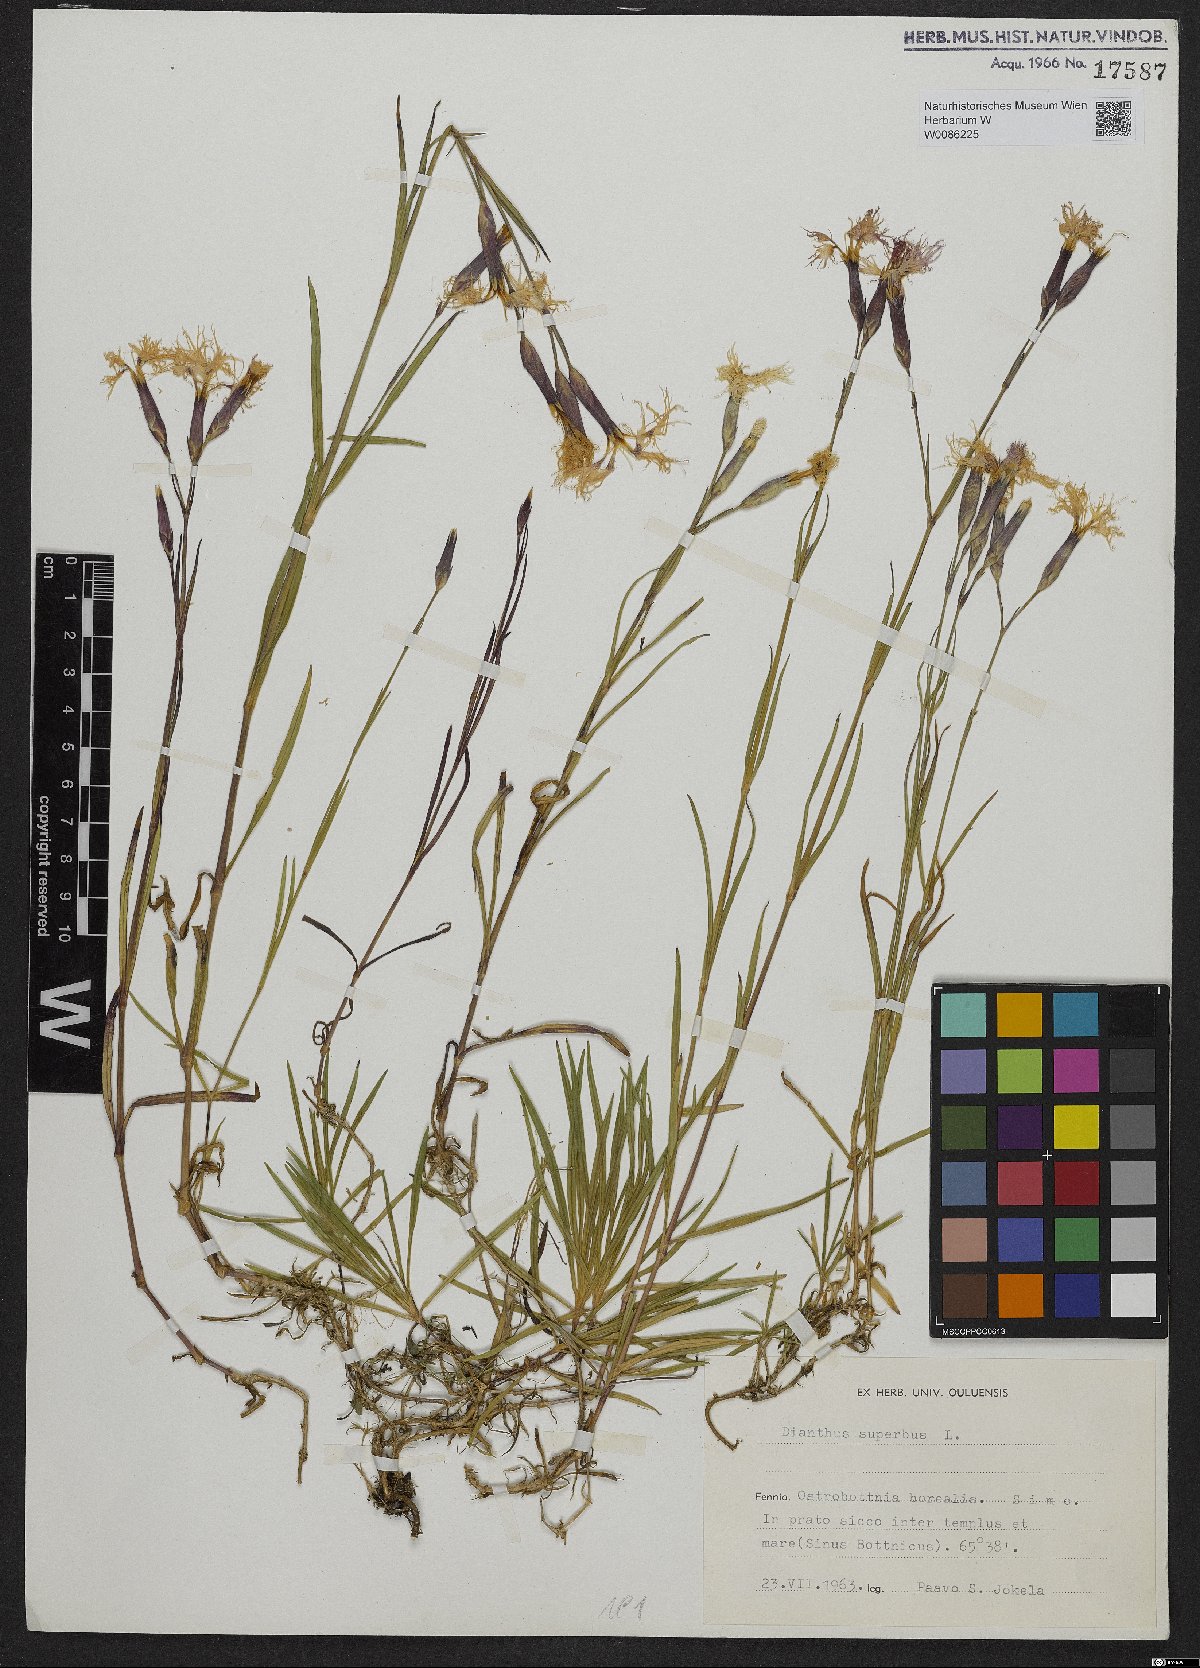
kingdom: Plantae
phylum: Tracheophyta
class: Magnoliopsida
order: Caryophyllales
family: Caryophyllaceae
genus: Dianthus
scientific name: Dianthus superbus
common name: Fringed pink
